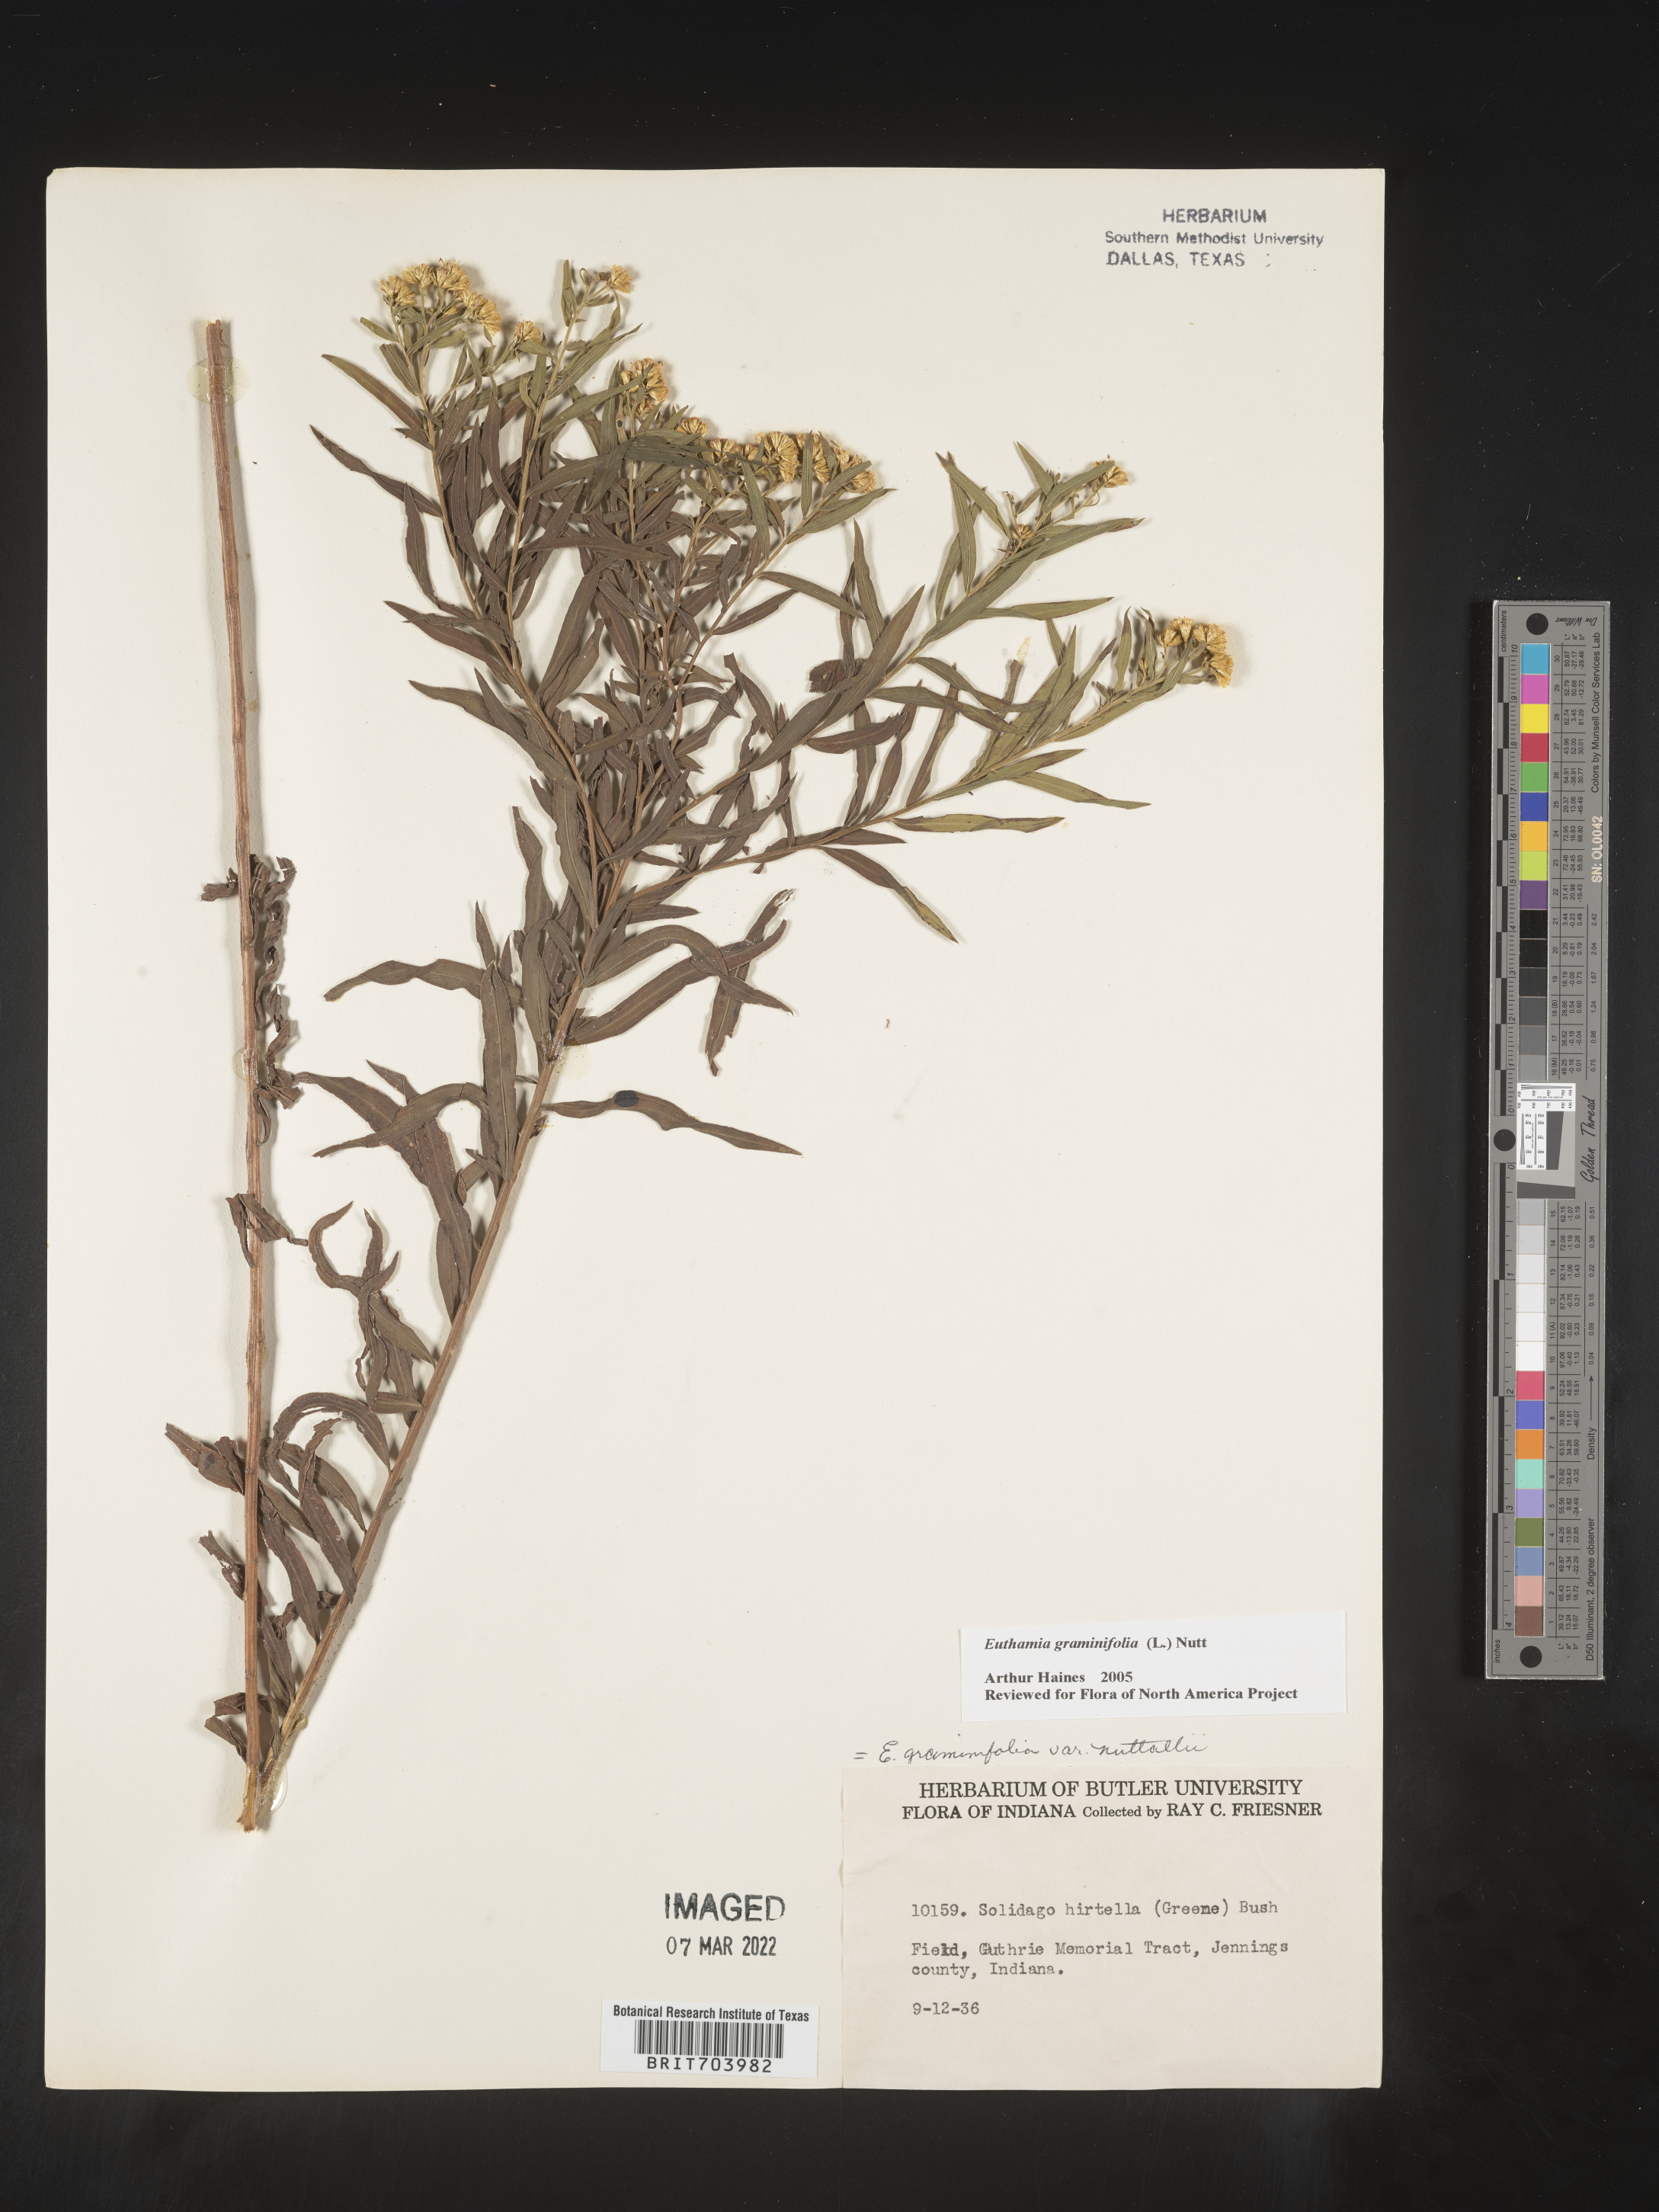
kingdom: Plantae
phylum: Tracheophyta
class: Magnoliopsida
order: Asterales
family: Asteraceae
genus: Euthamia
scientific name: Euthamia graminifolia
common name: Common goldentop
